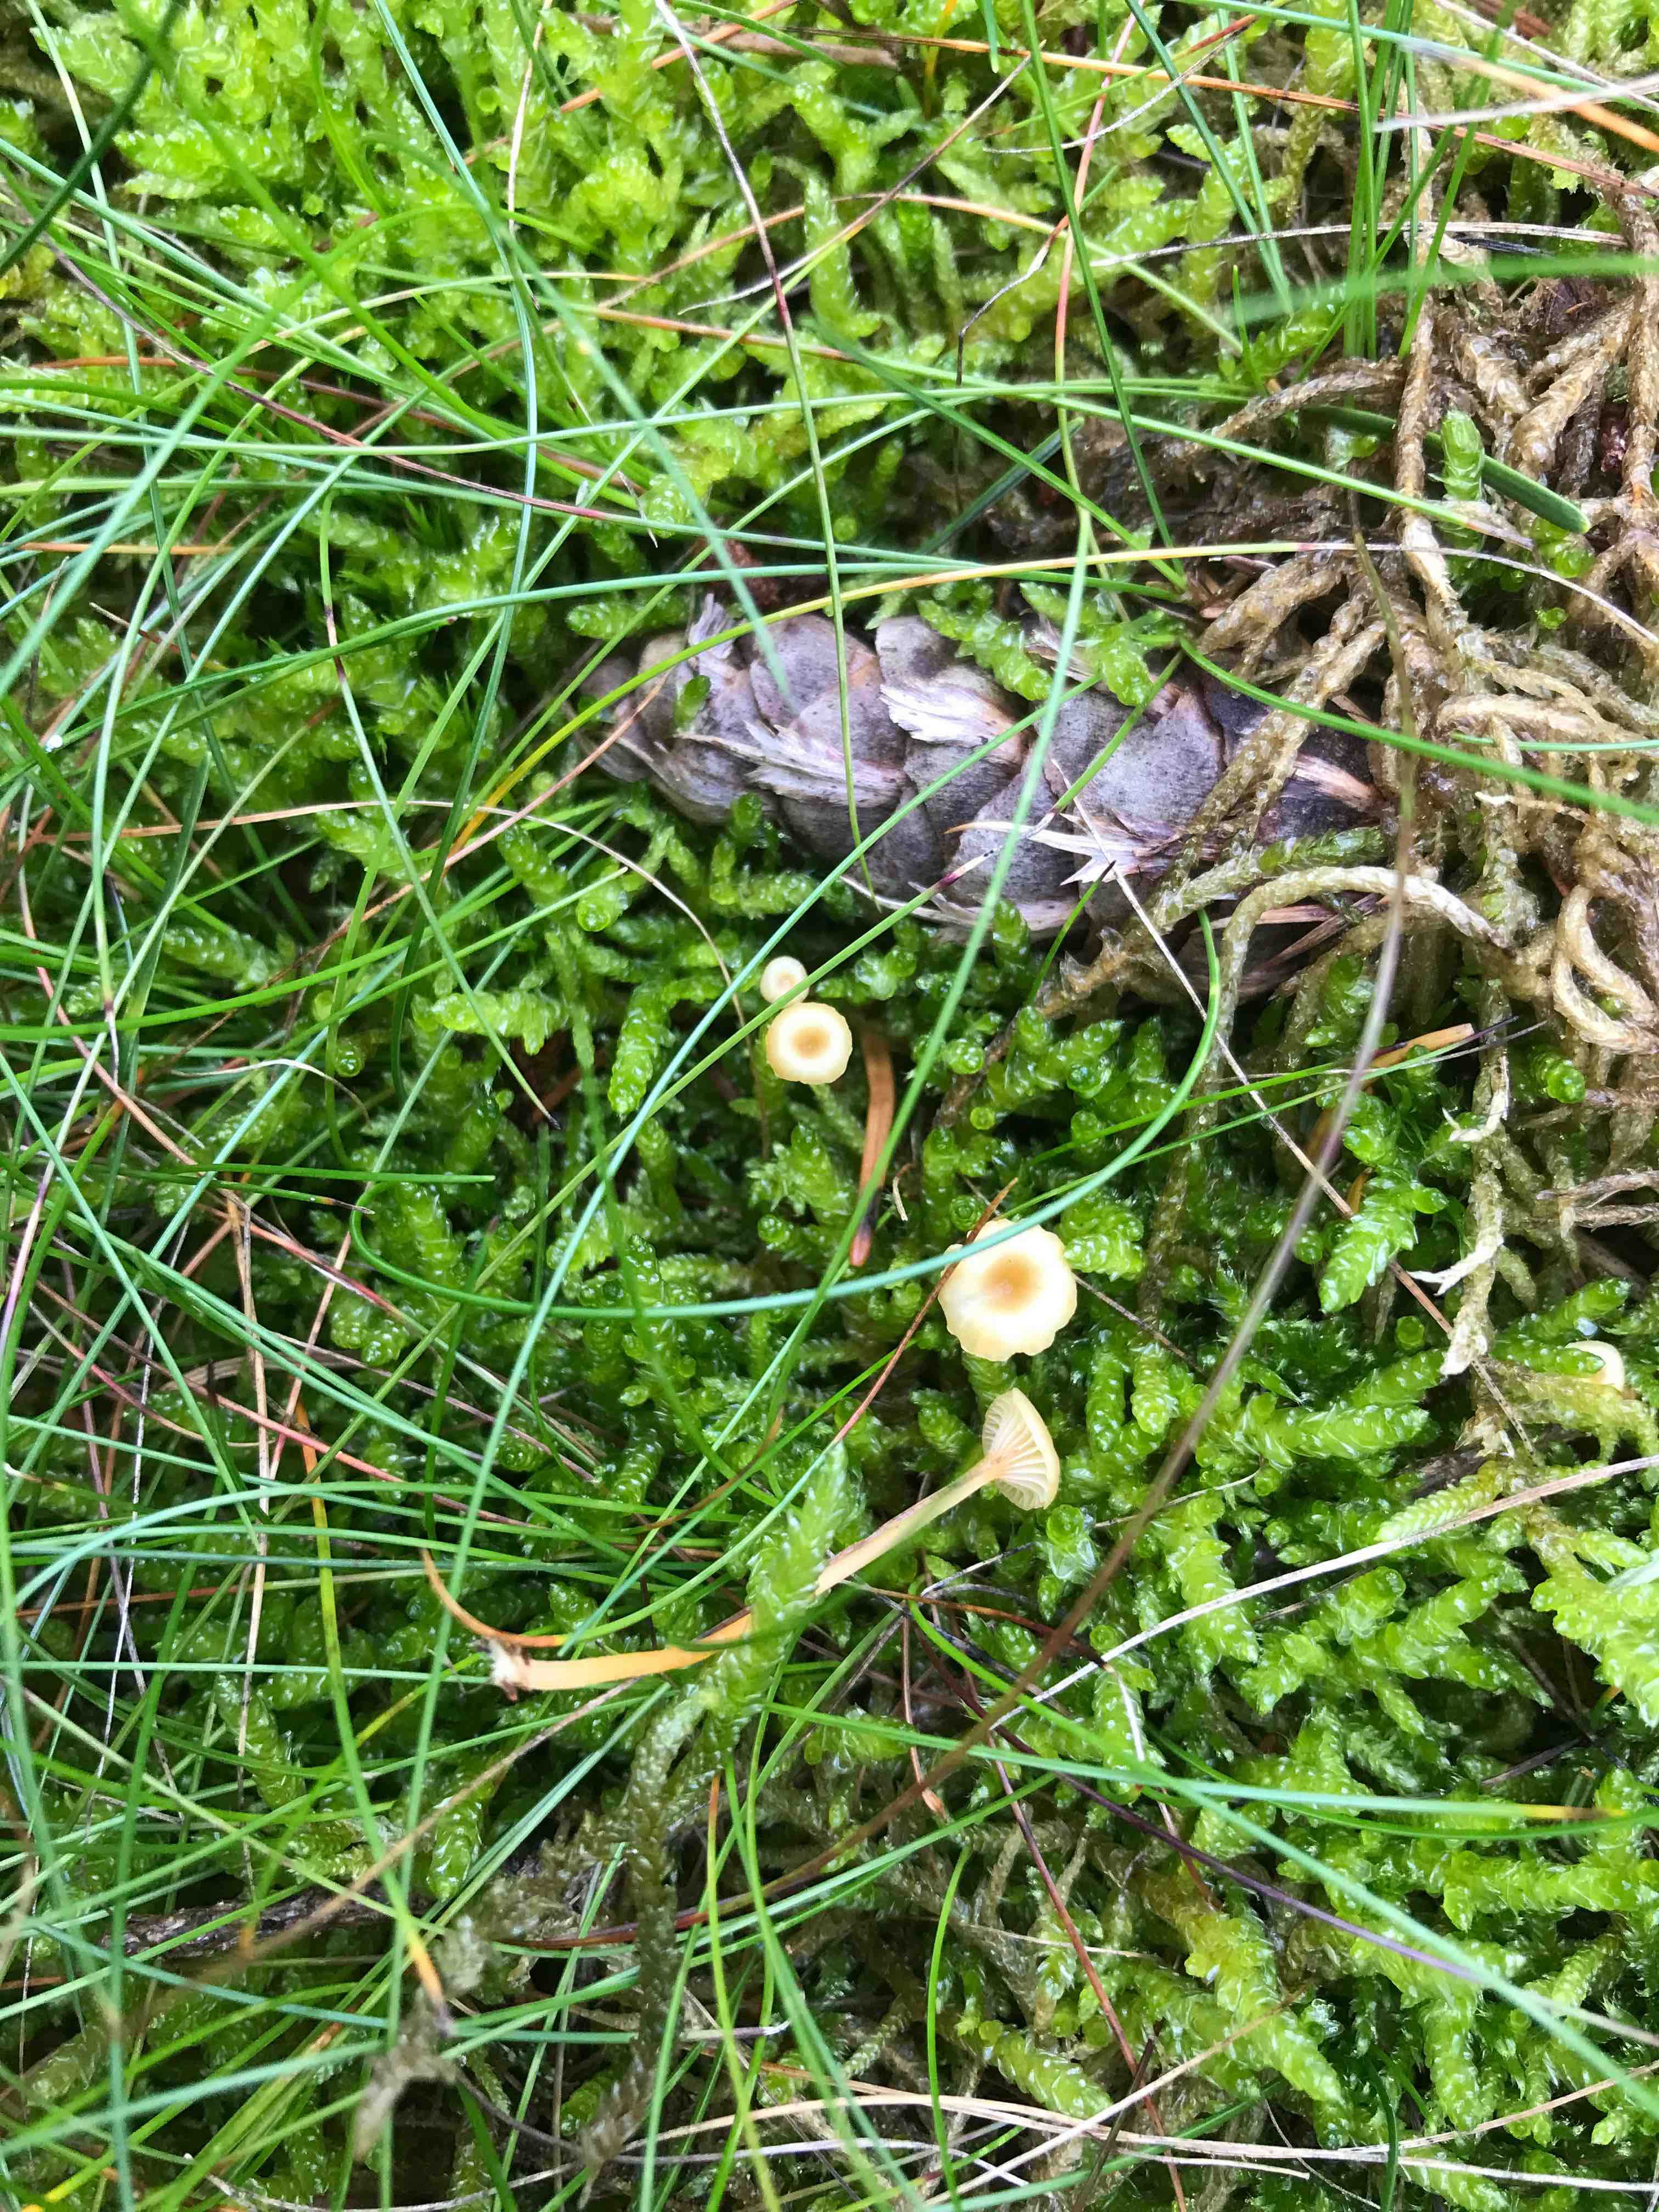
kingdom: Fungi
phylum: Basidiomycota
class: Agaricomycetes
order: Hymenochaetales
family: Rickenellaceae
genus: Rickenella
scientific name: Rickenella fibula
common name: orange mosnavlehat
